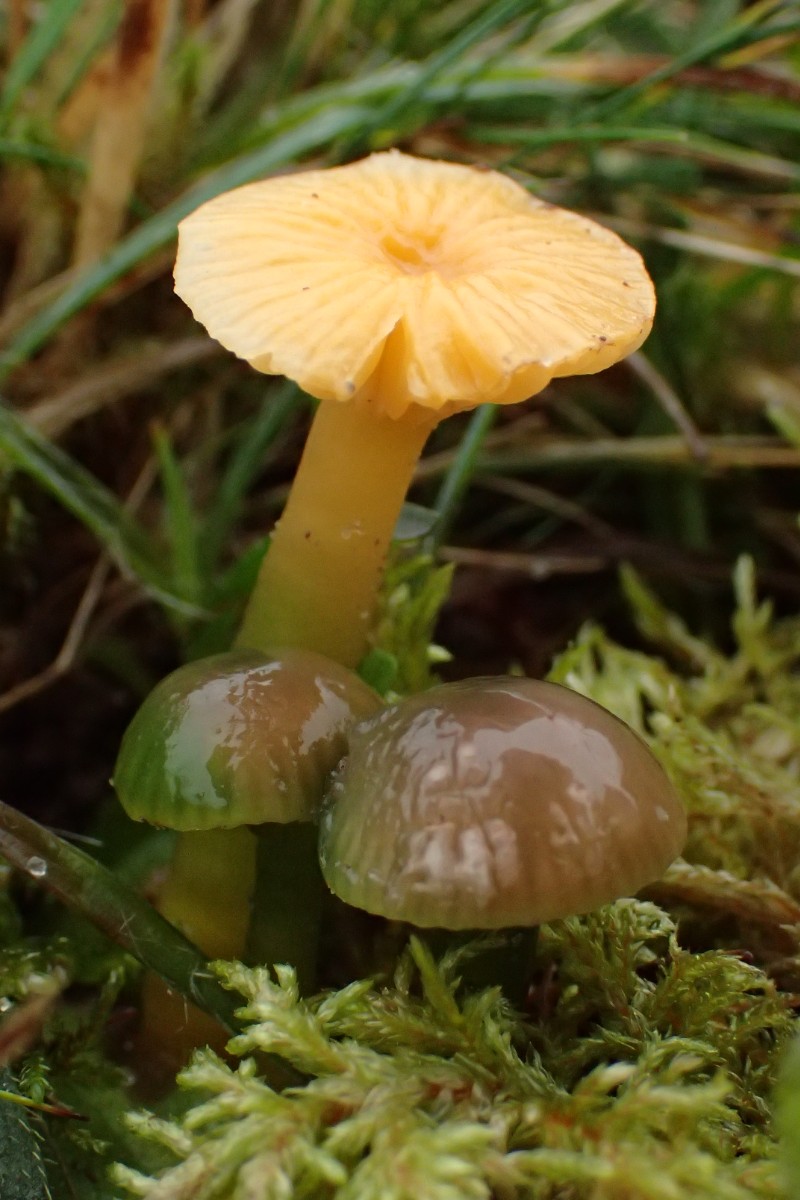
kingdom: Fungi
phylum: Basidiomycota
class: Agaricomycetes
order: Agaricales
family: Hygrophoraceae
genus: Gliophorus
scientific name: Gliophorus psittacinus
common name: papegøje-vokshat
